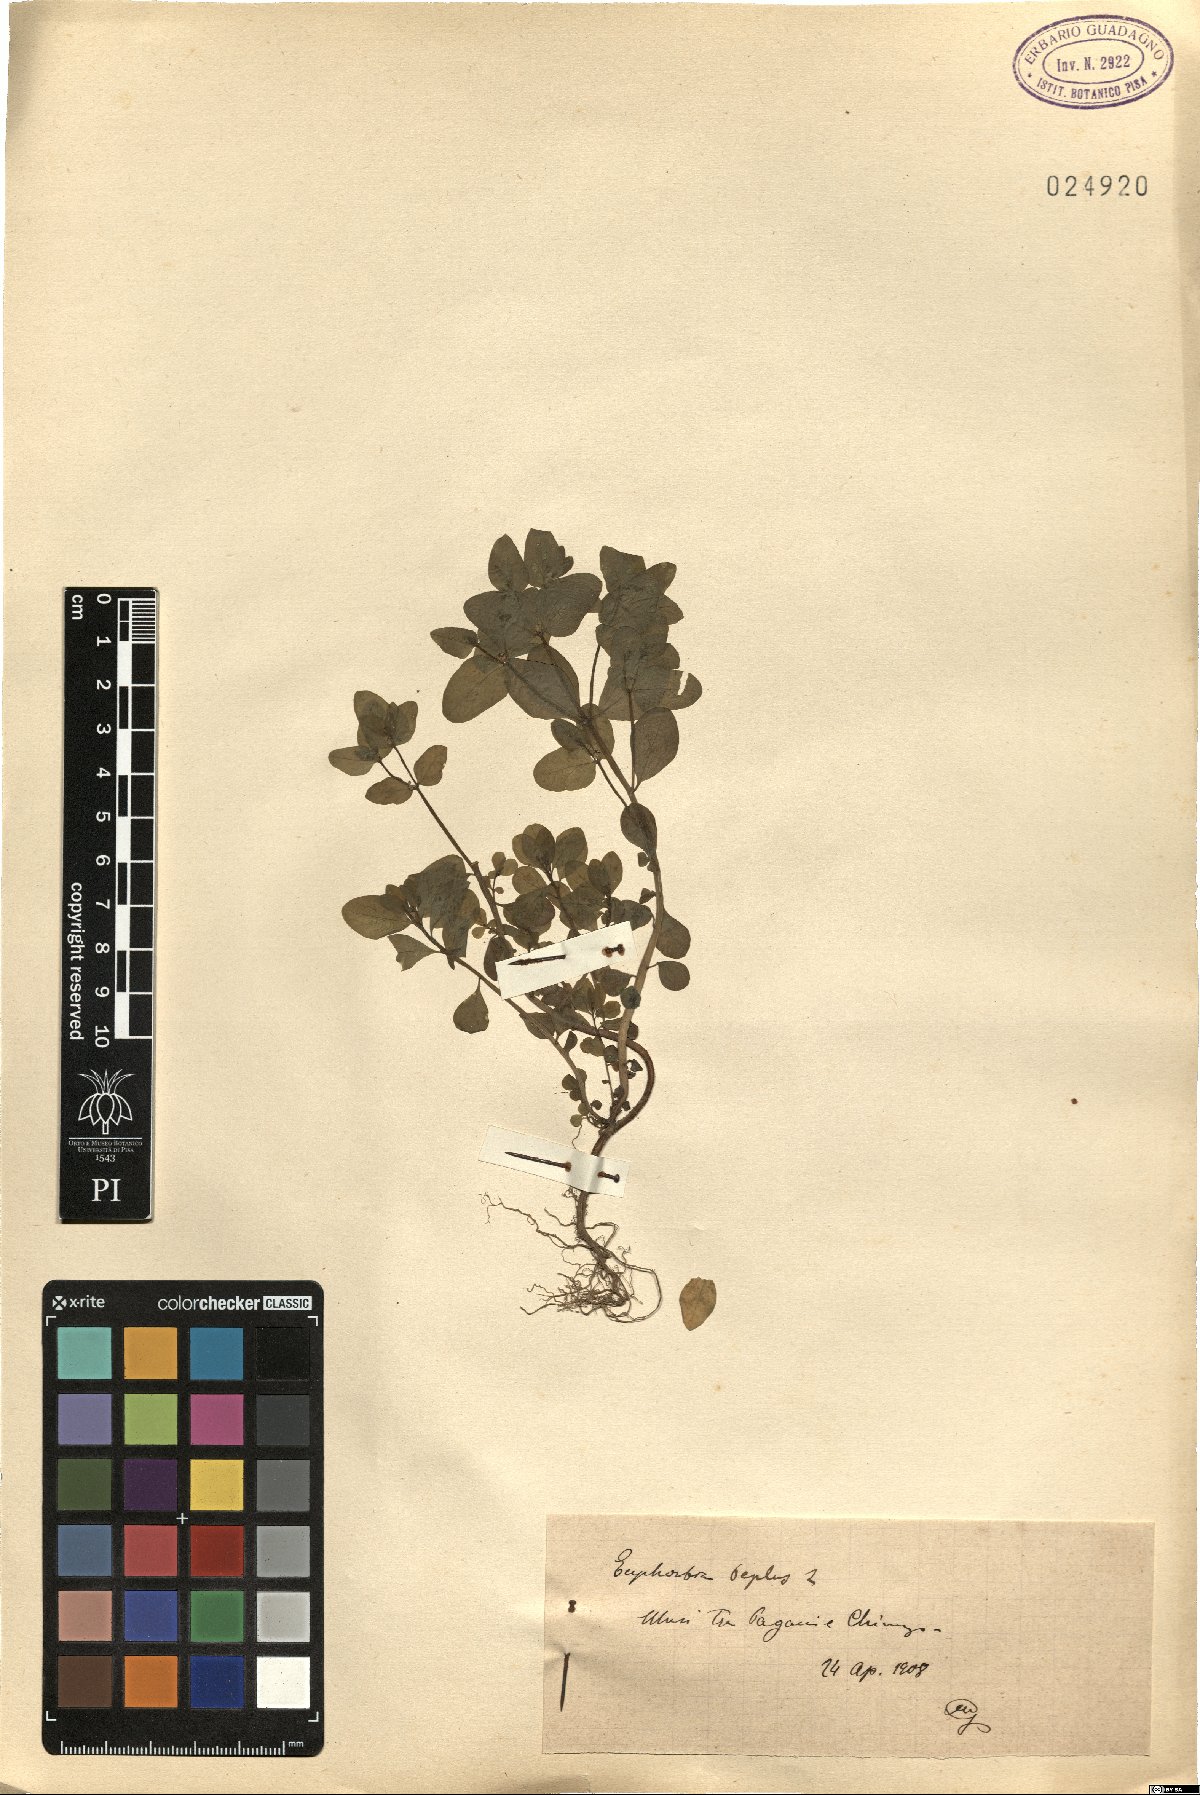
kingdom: Plantae
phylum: Tracheophyta
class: Magnoliopsida
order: Malpighiales
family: Euphorbiaceae
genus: Euphorbia
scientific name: Euphorbia peplus
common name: Petty spurge
